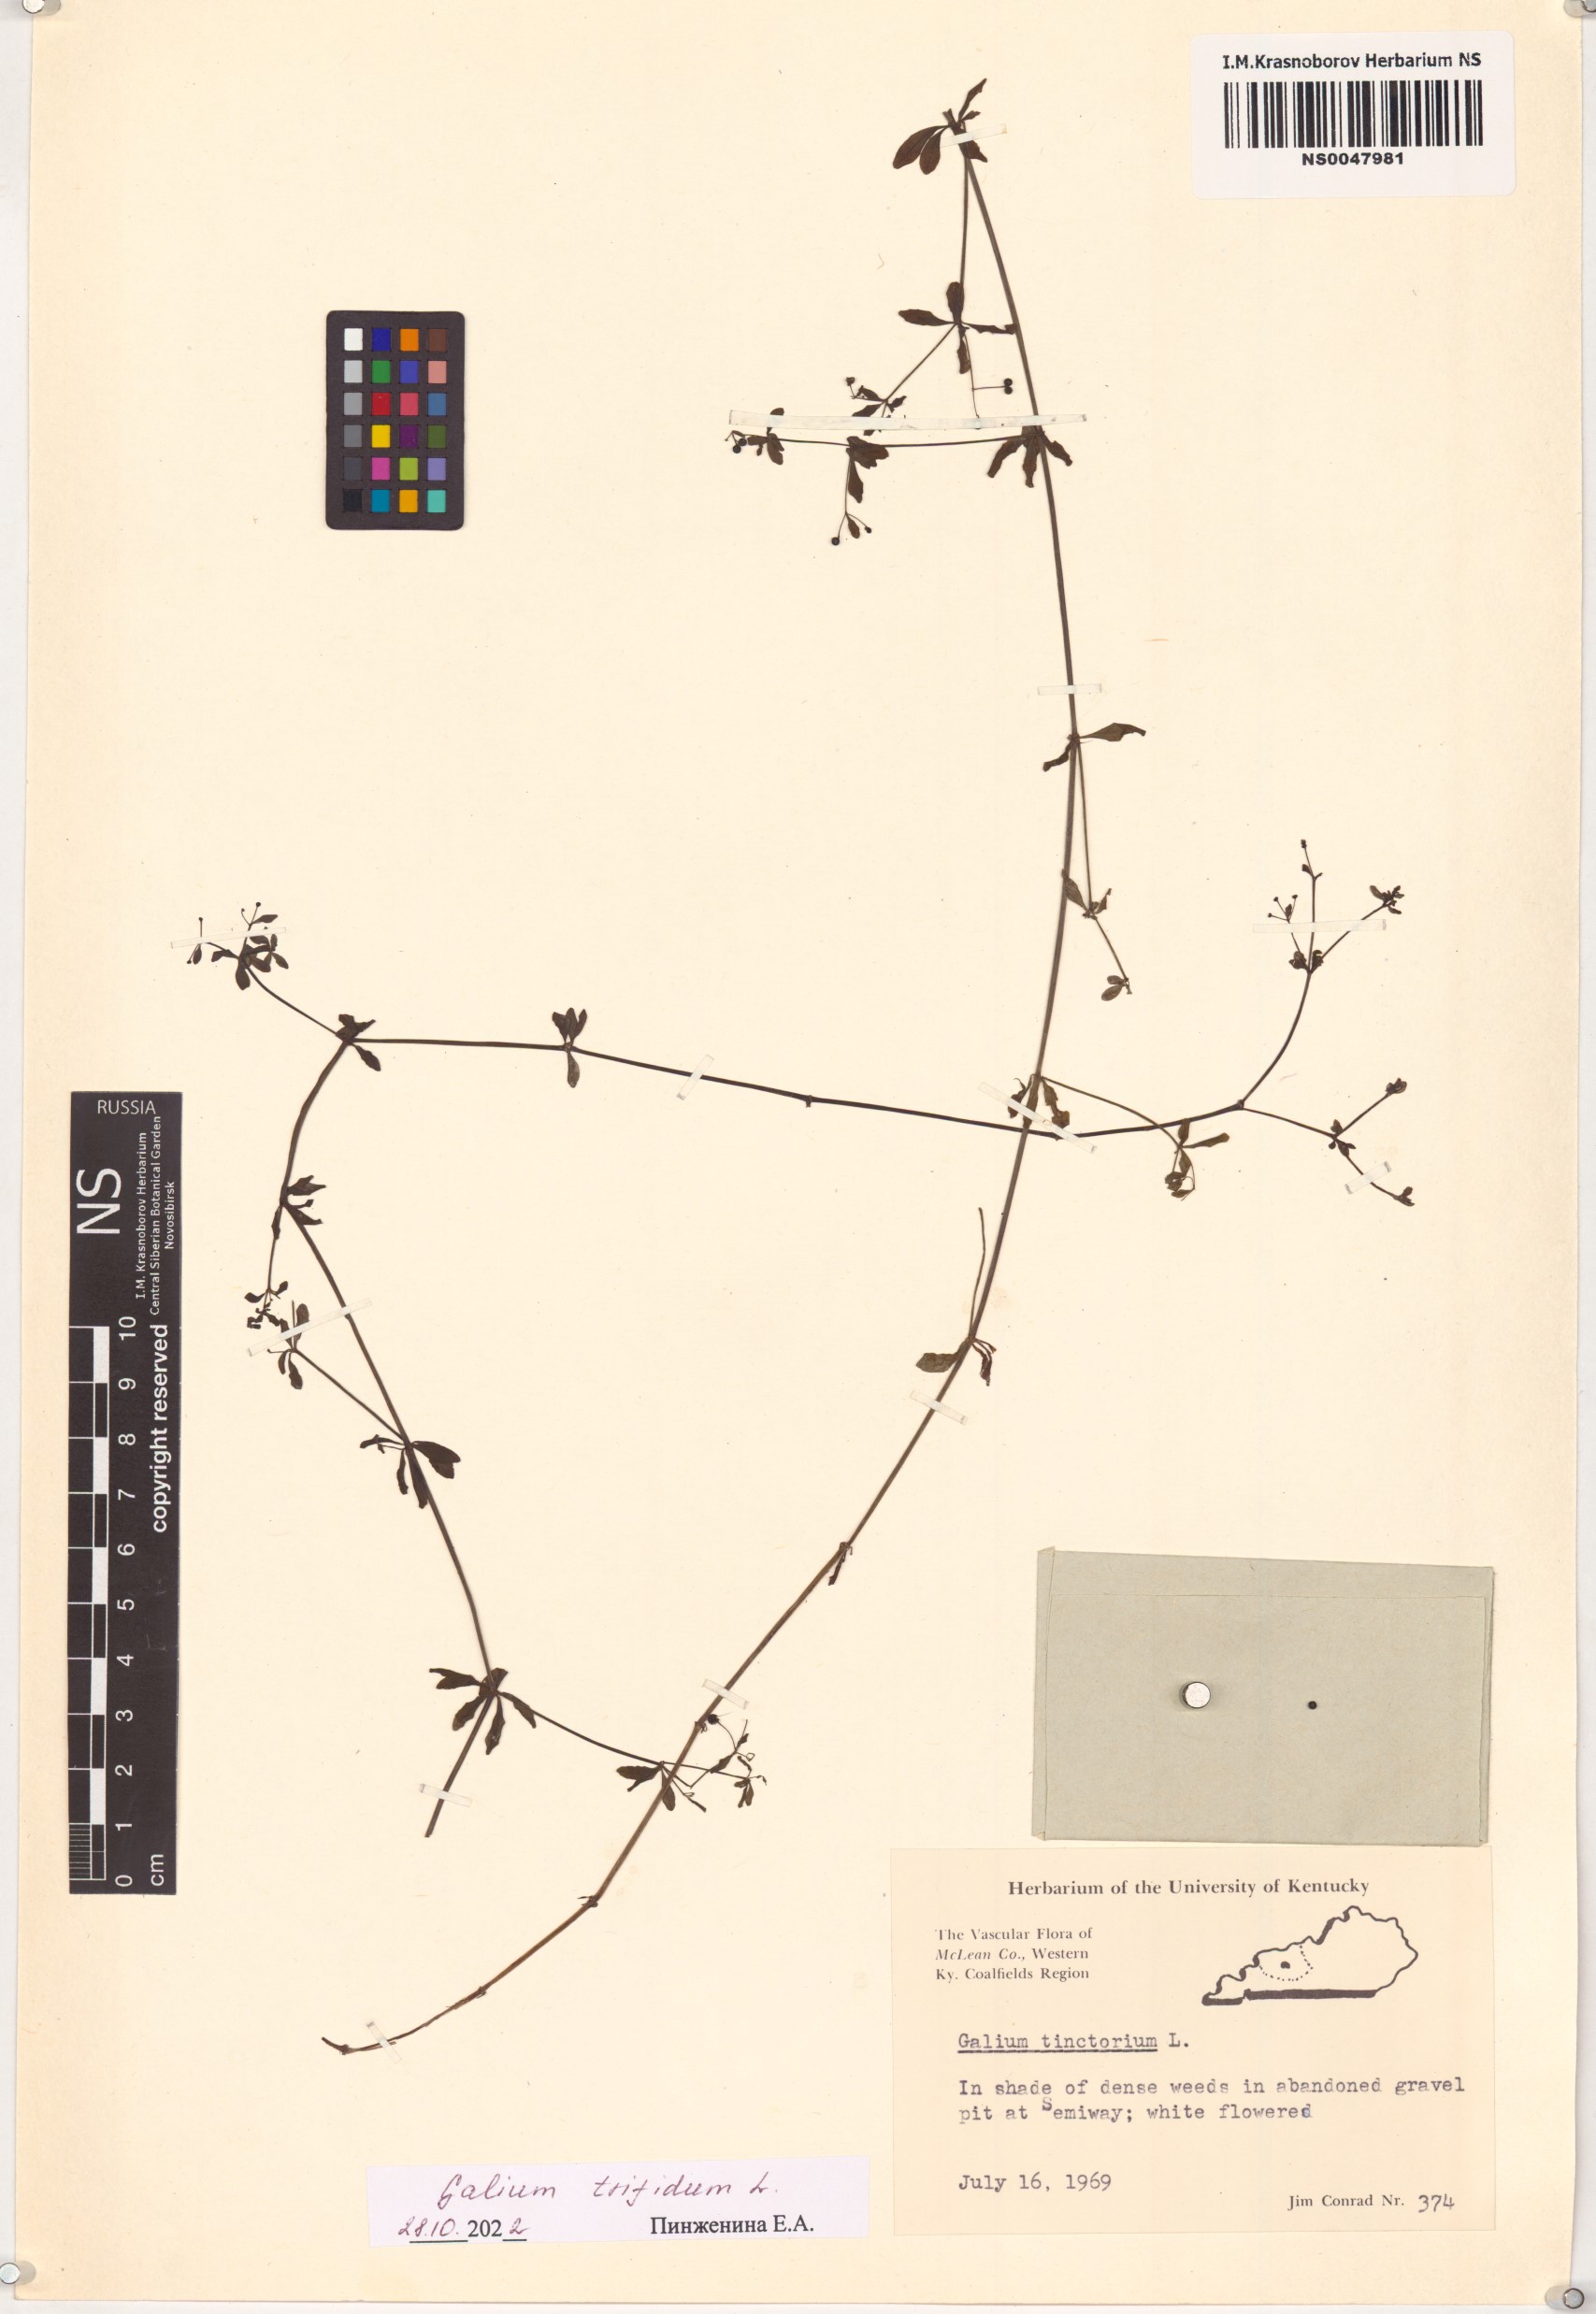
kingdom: Plantae
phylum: Tracheophyta
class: Magnoliopsida
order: Gentianales
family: Rubiaceae
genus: Galium
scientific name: Galium trifidum
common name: Small bedstraw
